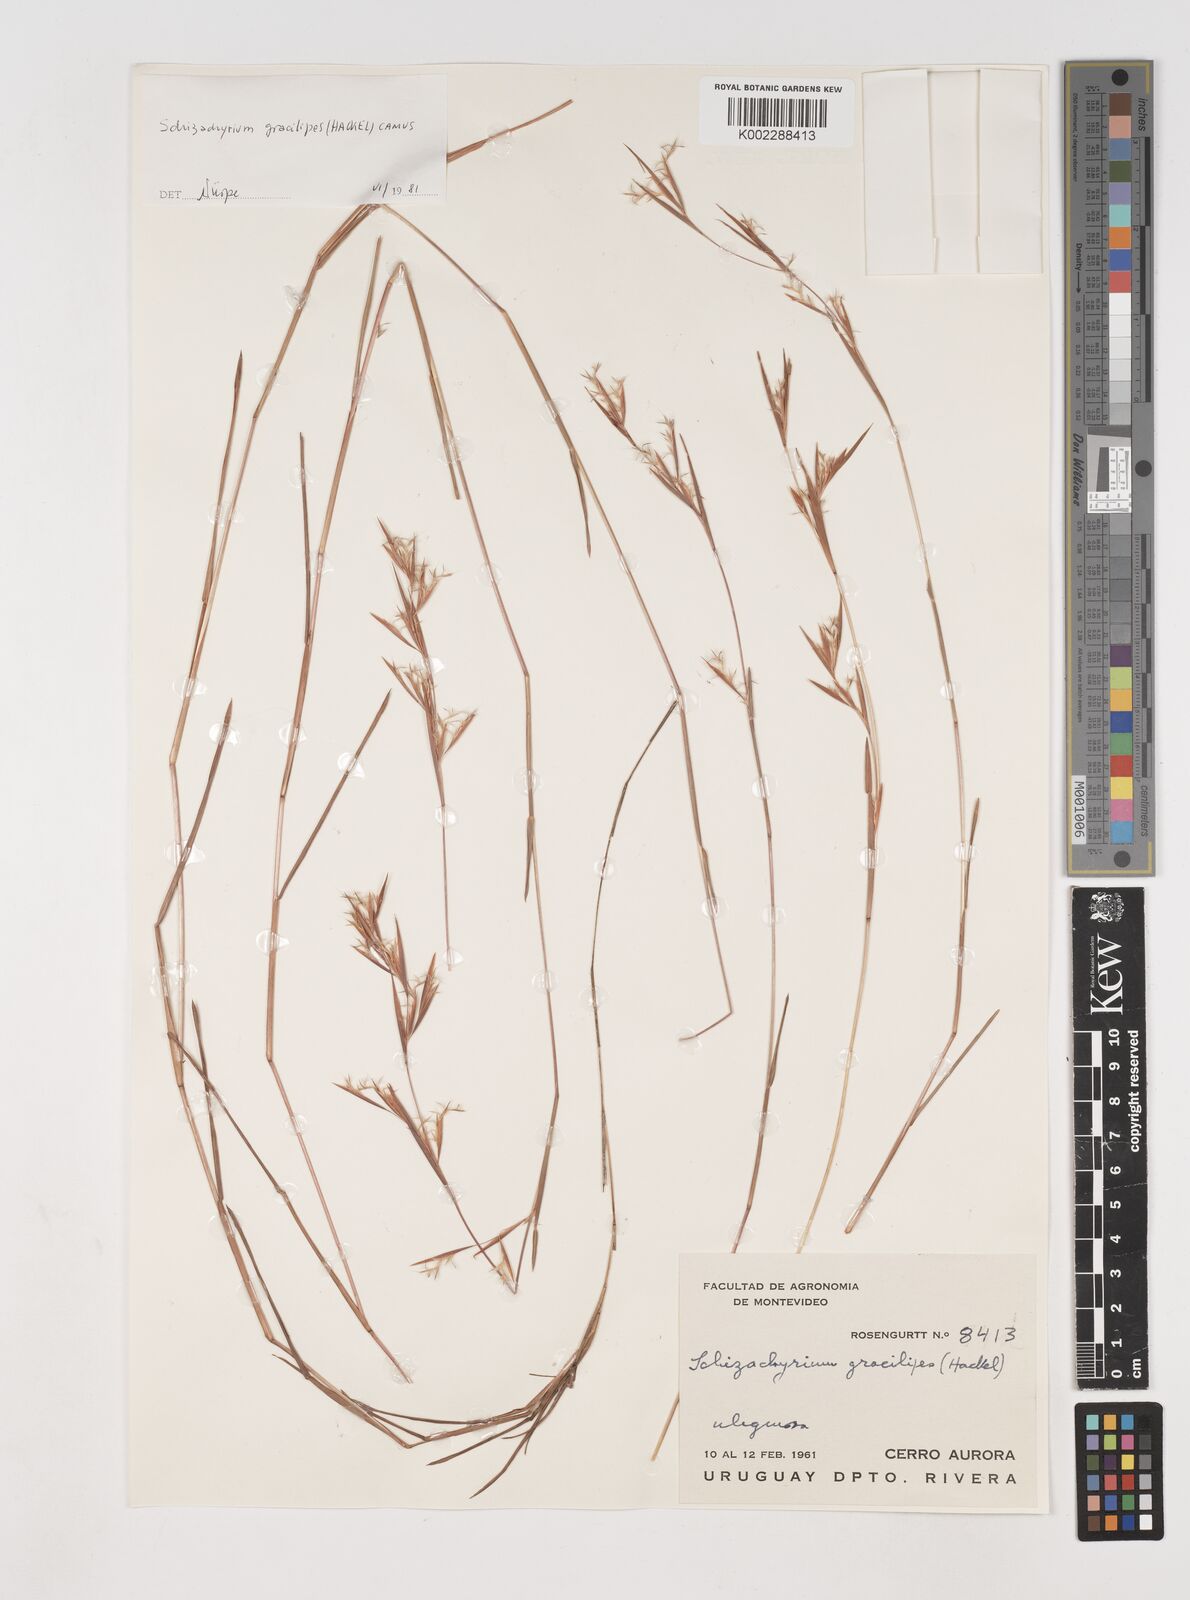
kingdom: Plantae
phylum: Tracheophyta
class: Liliopsida
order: Poales
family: Poaceae
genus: Schizachyrium
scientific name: Schizachyrium gracilipes
